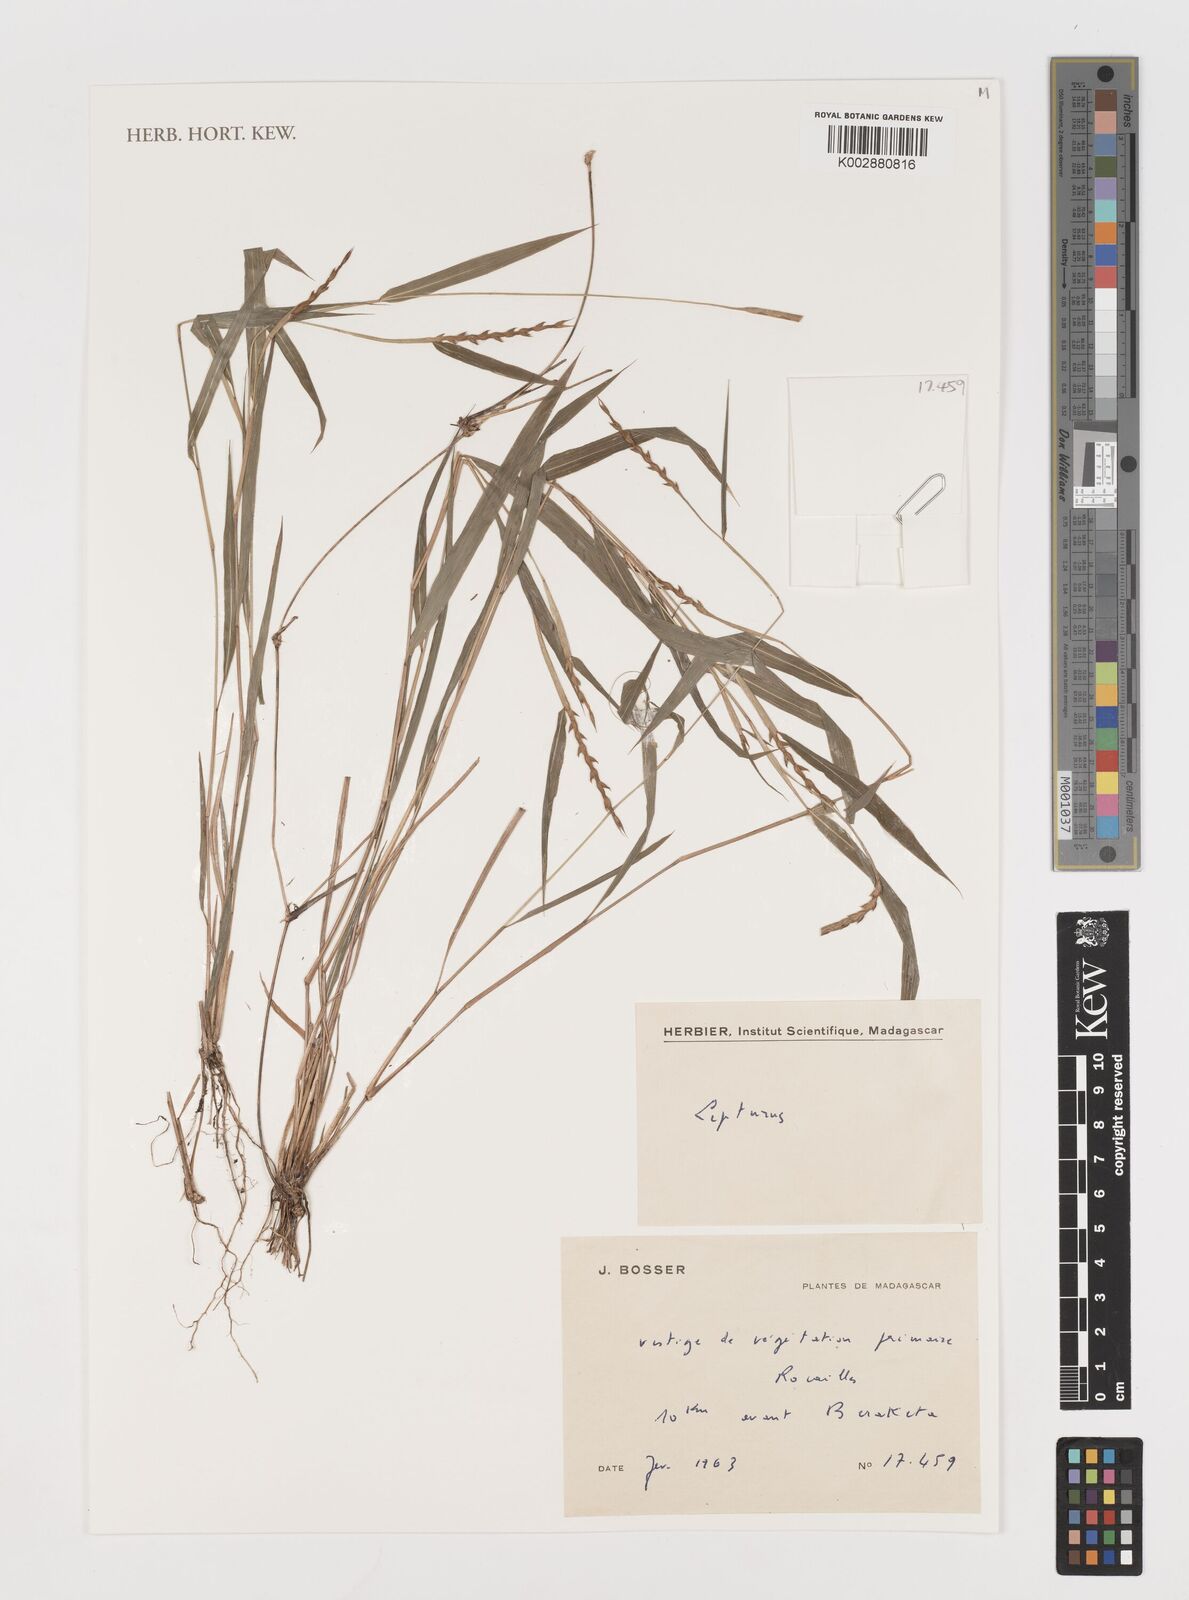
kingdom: Plantae
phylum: Tracheophyta
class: Liliopsida
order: Poales
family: Poaceae
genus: Lepturus
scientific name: Lepturus
